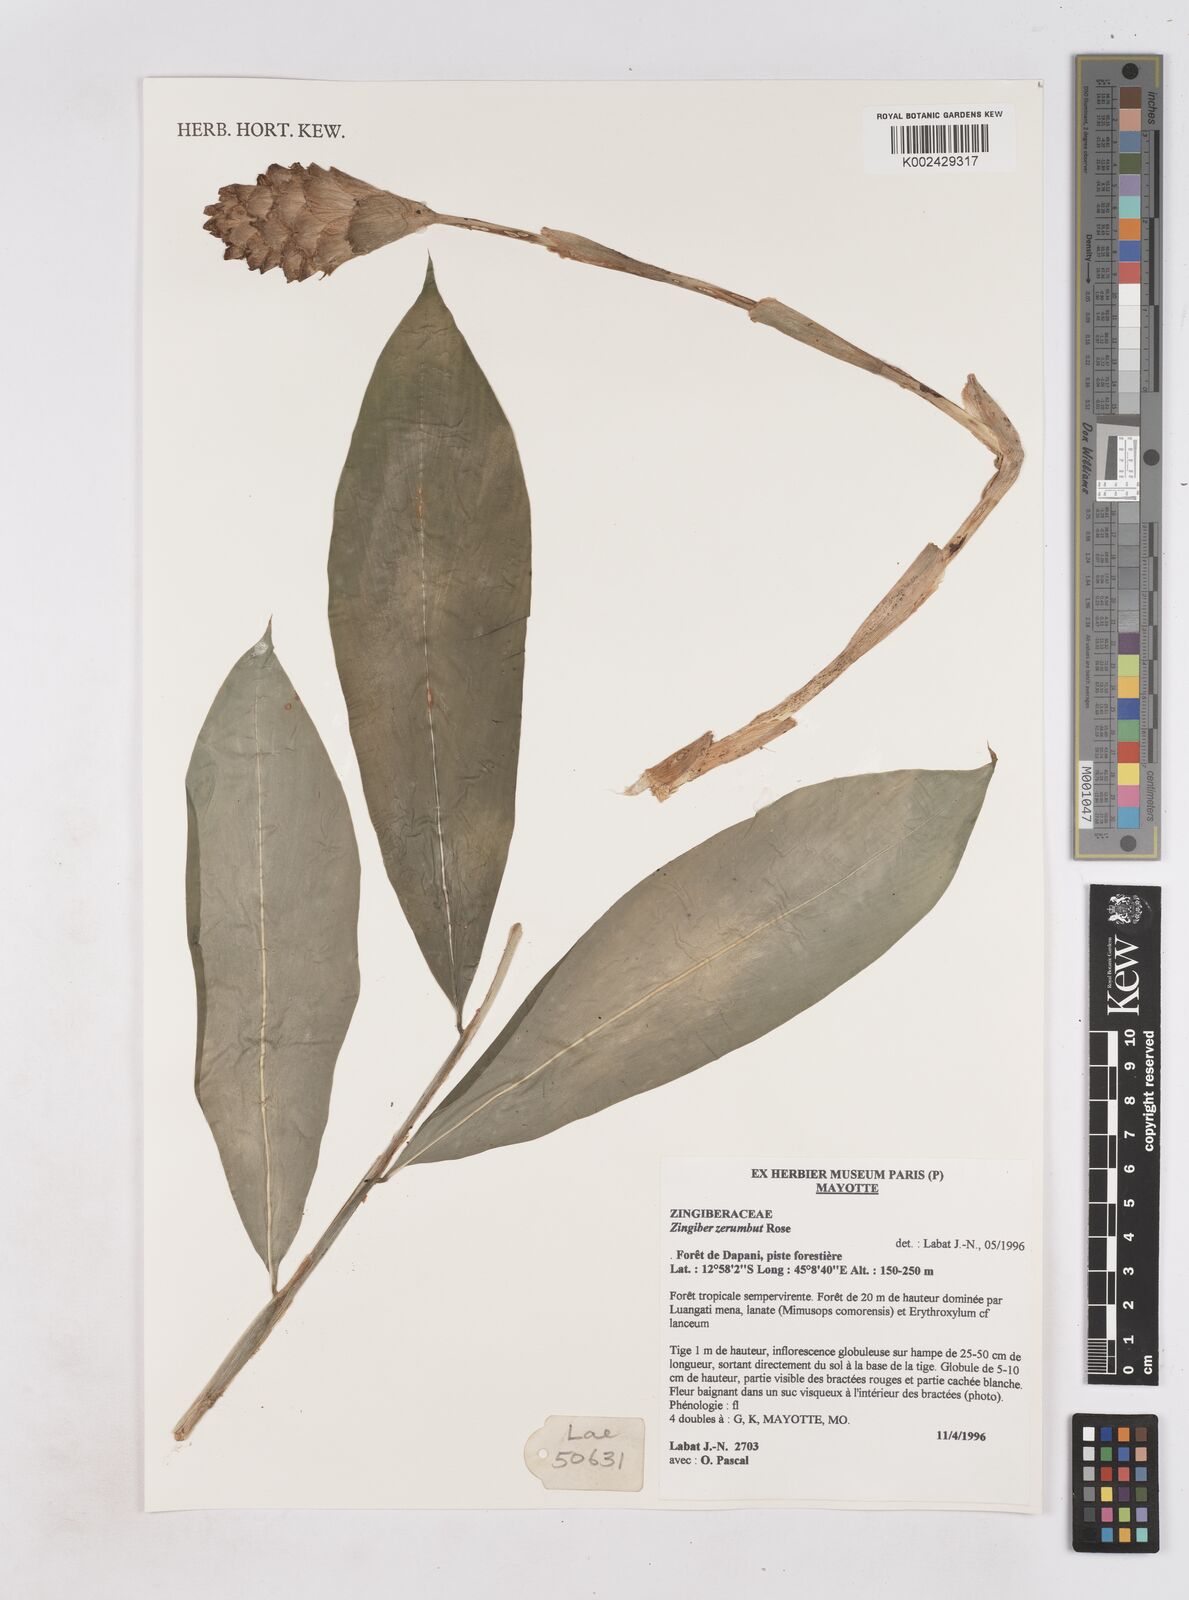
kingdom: Plantae
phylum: Tracheophyta
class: Liliopsida
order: Zingiberales
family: Zingiberaceae
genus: Zingiber
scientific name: Zingiber zerumbet
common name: Bitter ginger
